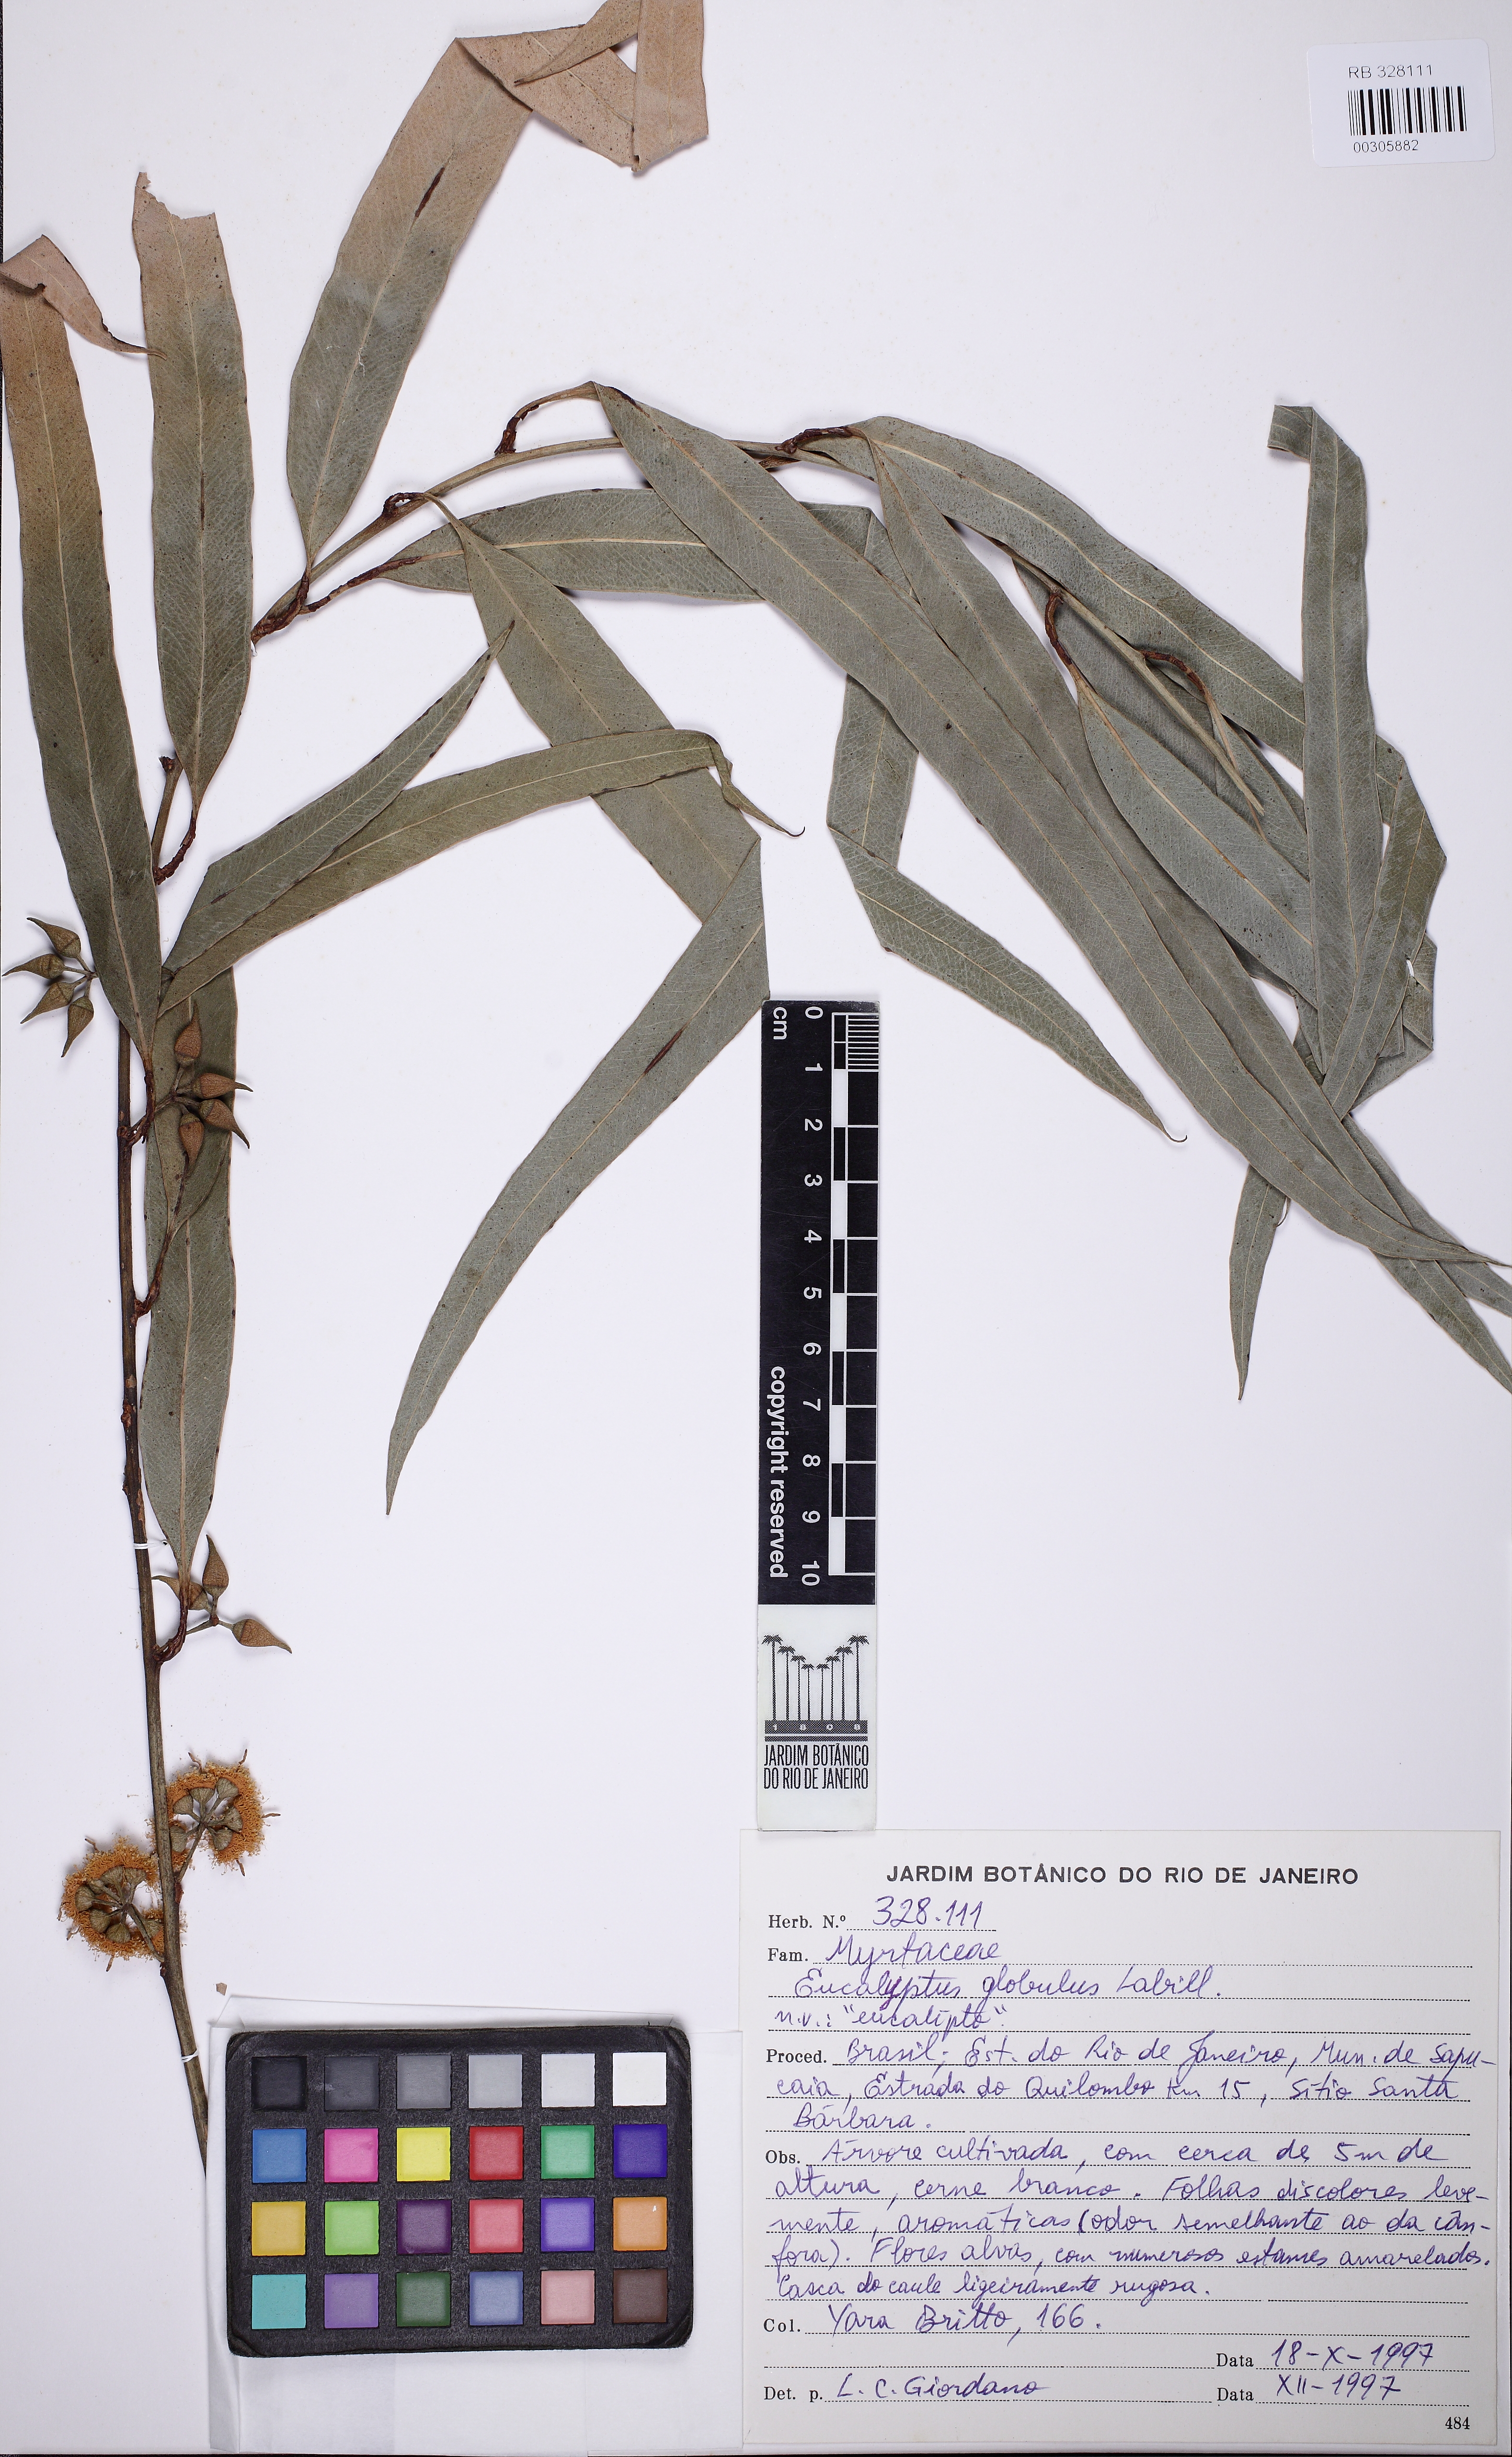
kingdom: Plantae
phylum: Tracheophyta
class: Magnoliopsida
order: Myrtales
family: Myrtaceae
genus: Eucalyptus
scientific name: Eucalyptus globulus
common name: Southern blue-gum
